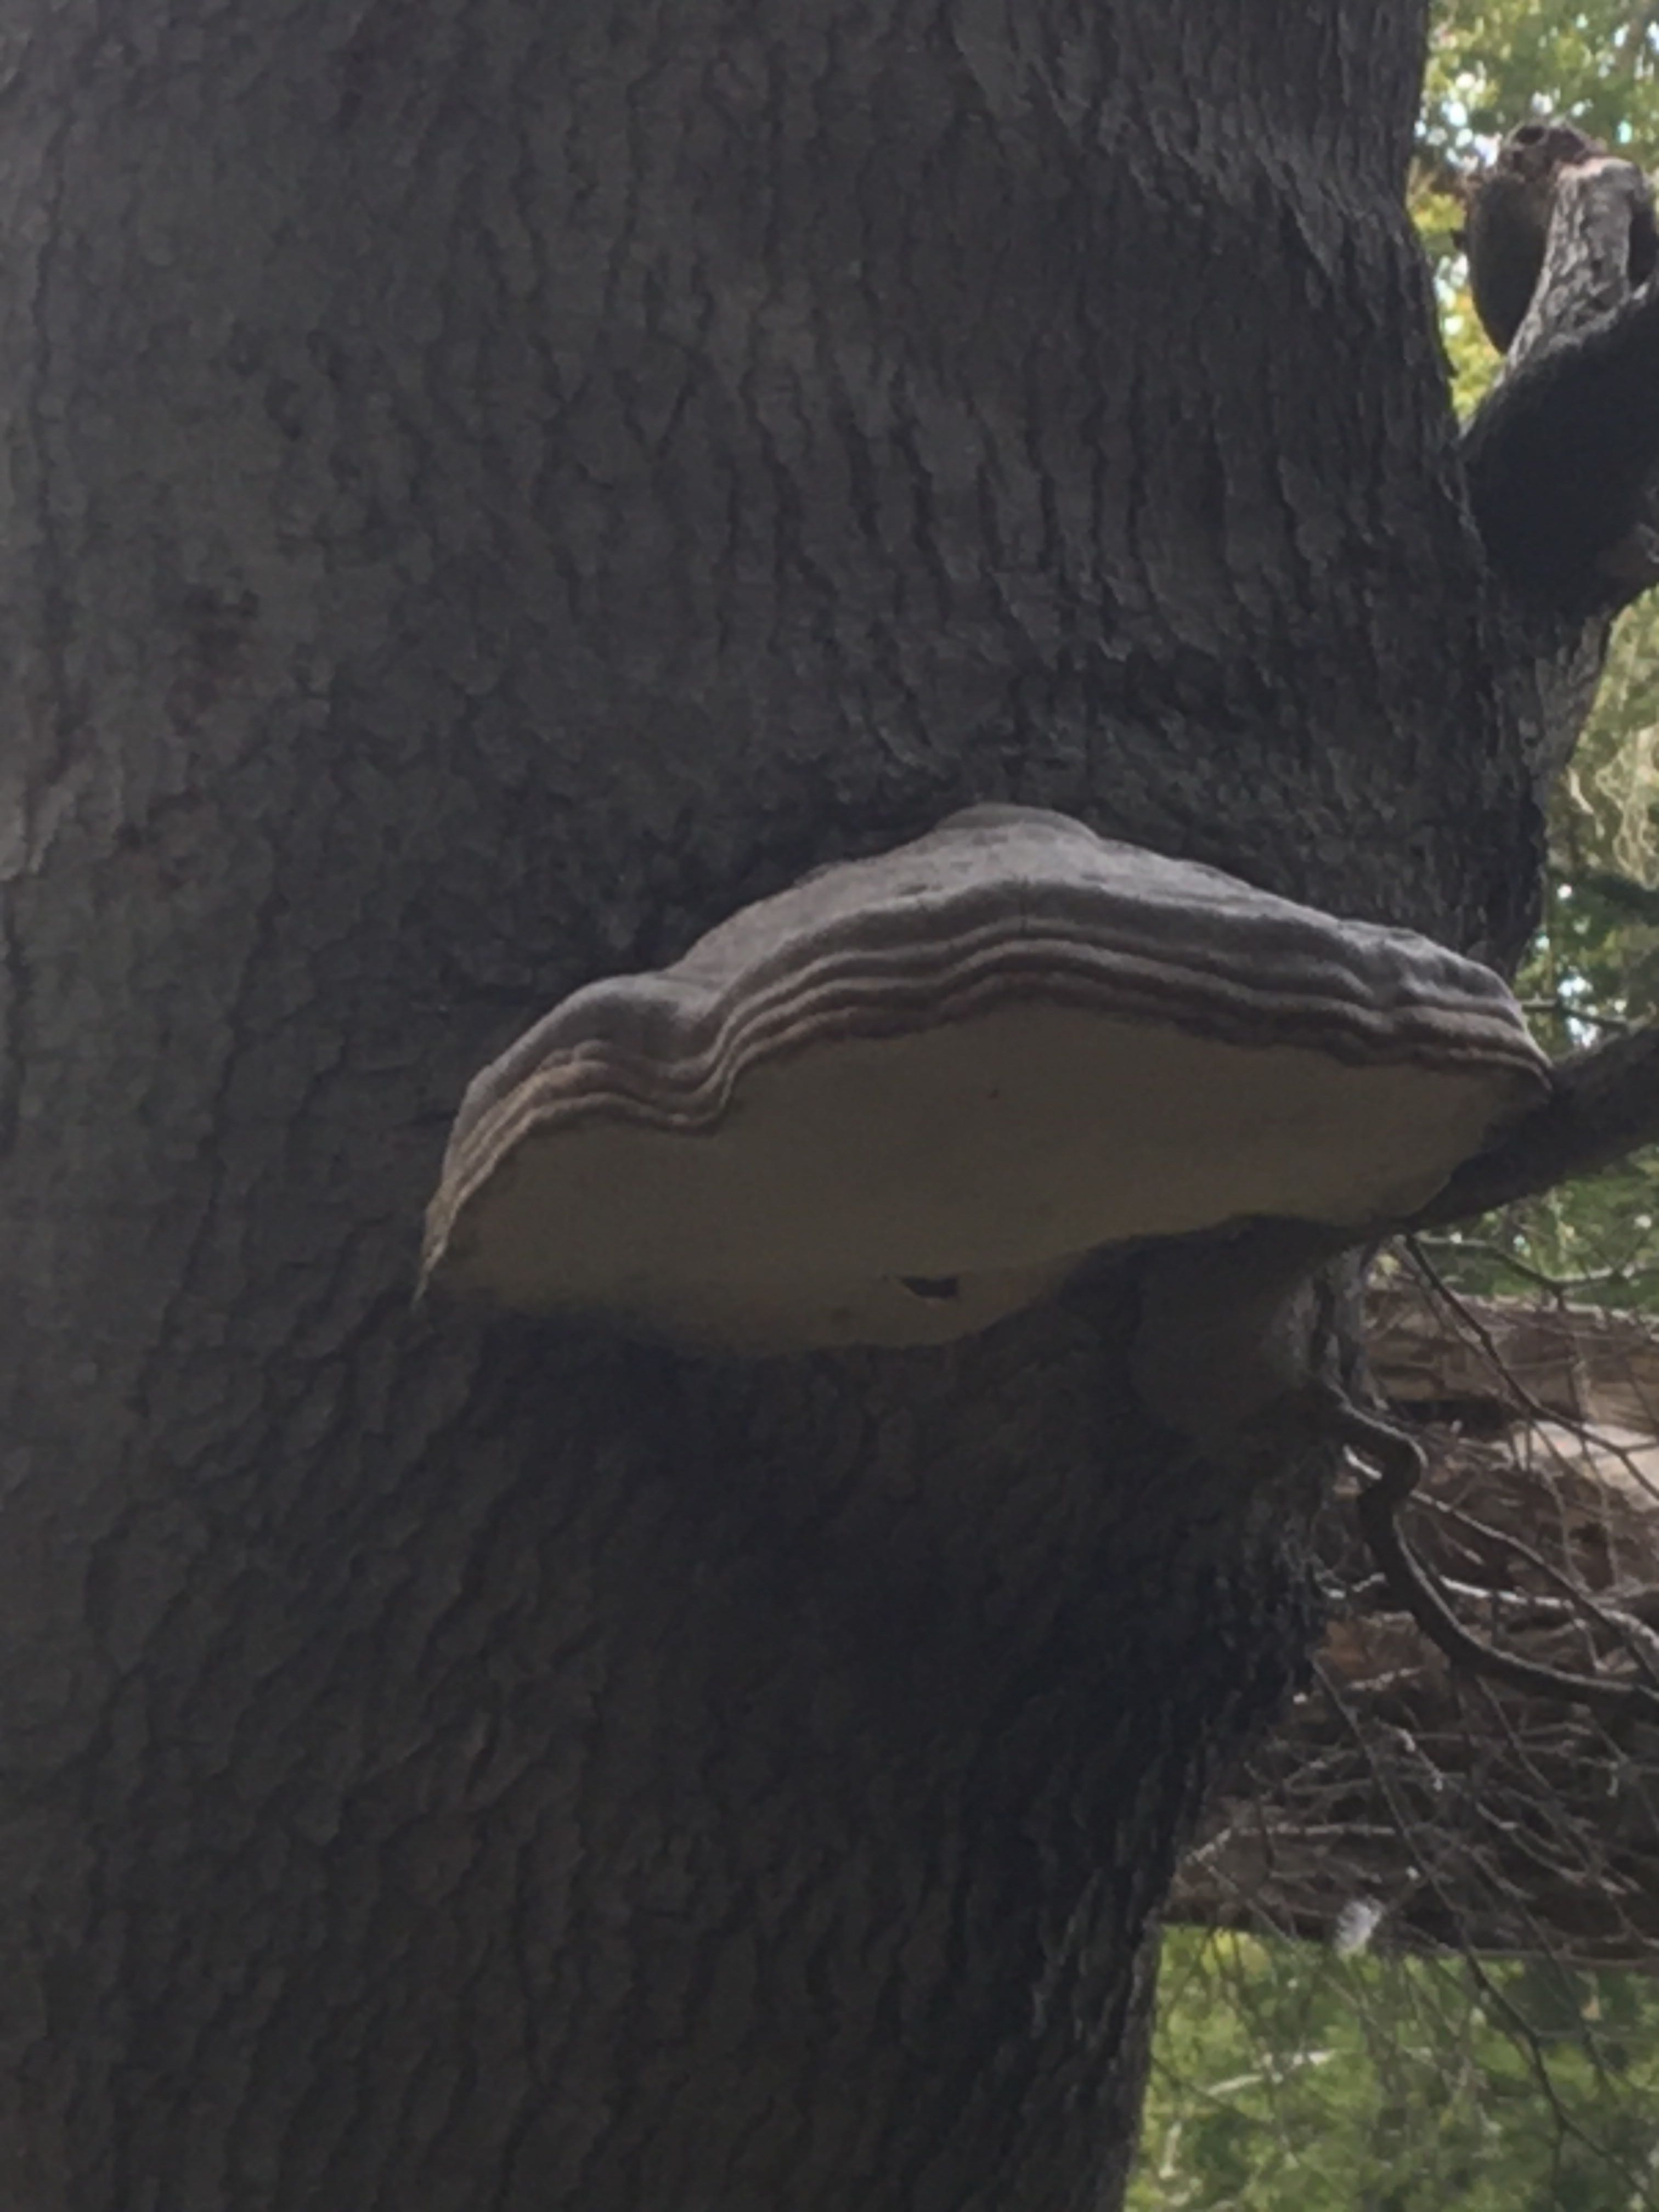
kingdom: Fungi
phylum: Basidiomycota
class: Agaricomycetes
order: Polyporales
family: Polyporaceae
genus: Fomes
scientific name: Fomes fomentarius
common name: tøndersvamp
